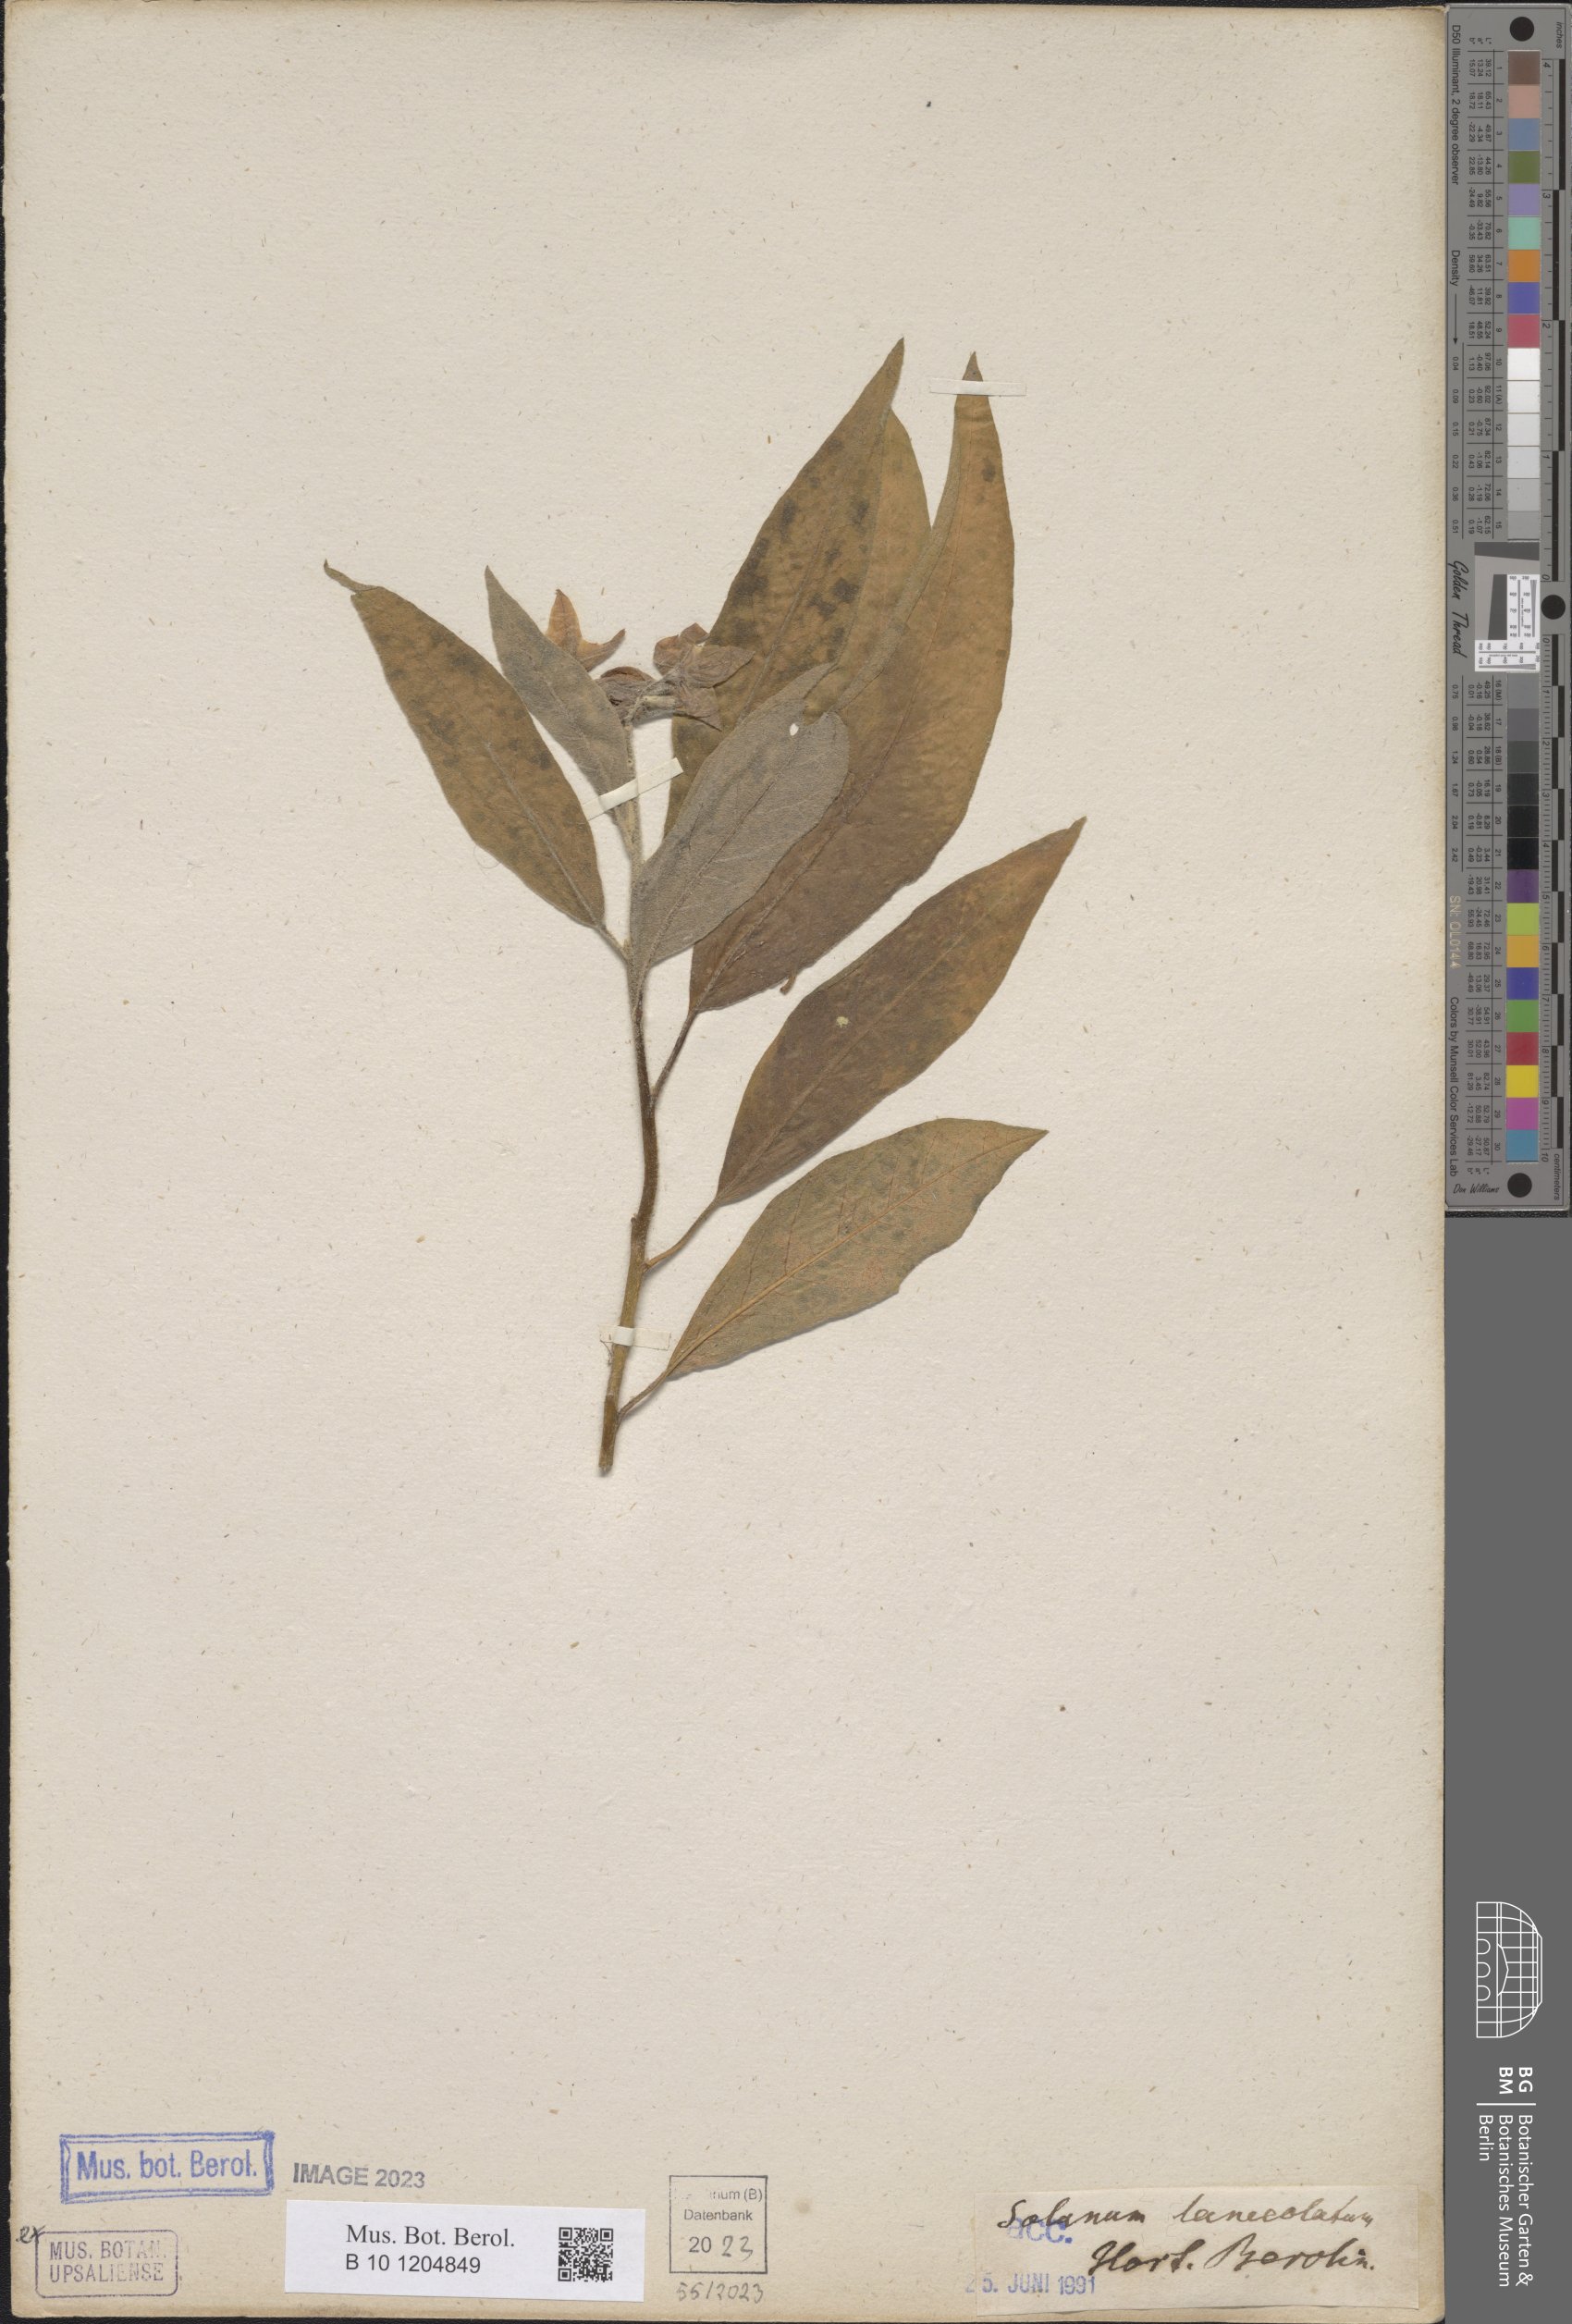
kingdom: Plantae
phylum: Tracheophyta
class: Magnoliopsida
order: Solanales
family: Solanaceae
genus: Solanum
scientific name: Solanum lanceolatum
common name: Orangeberry nightshade
